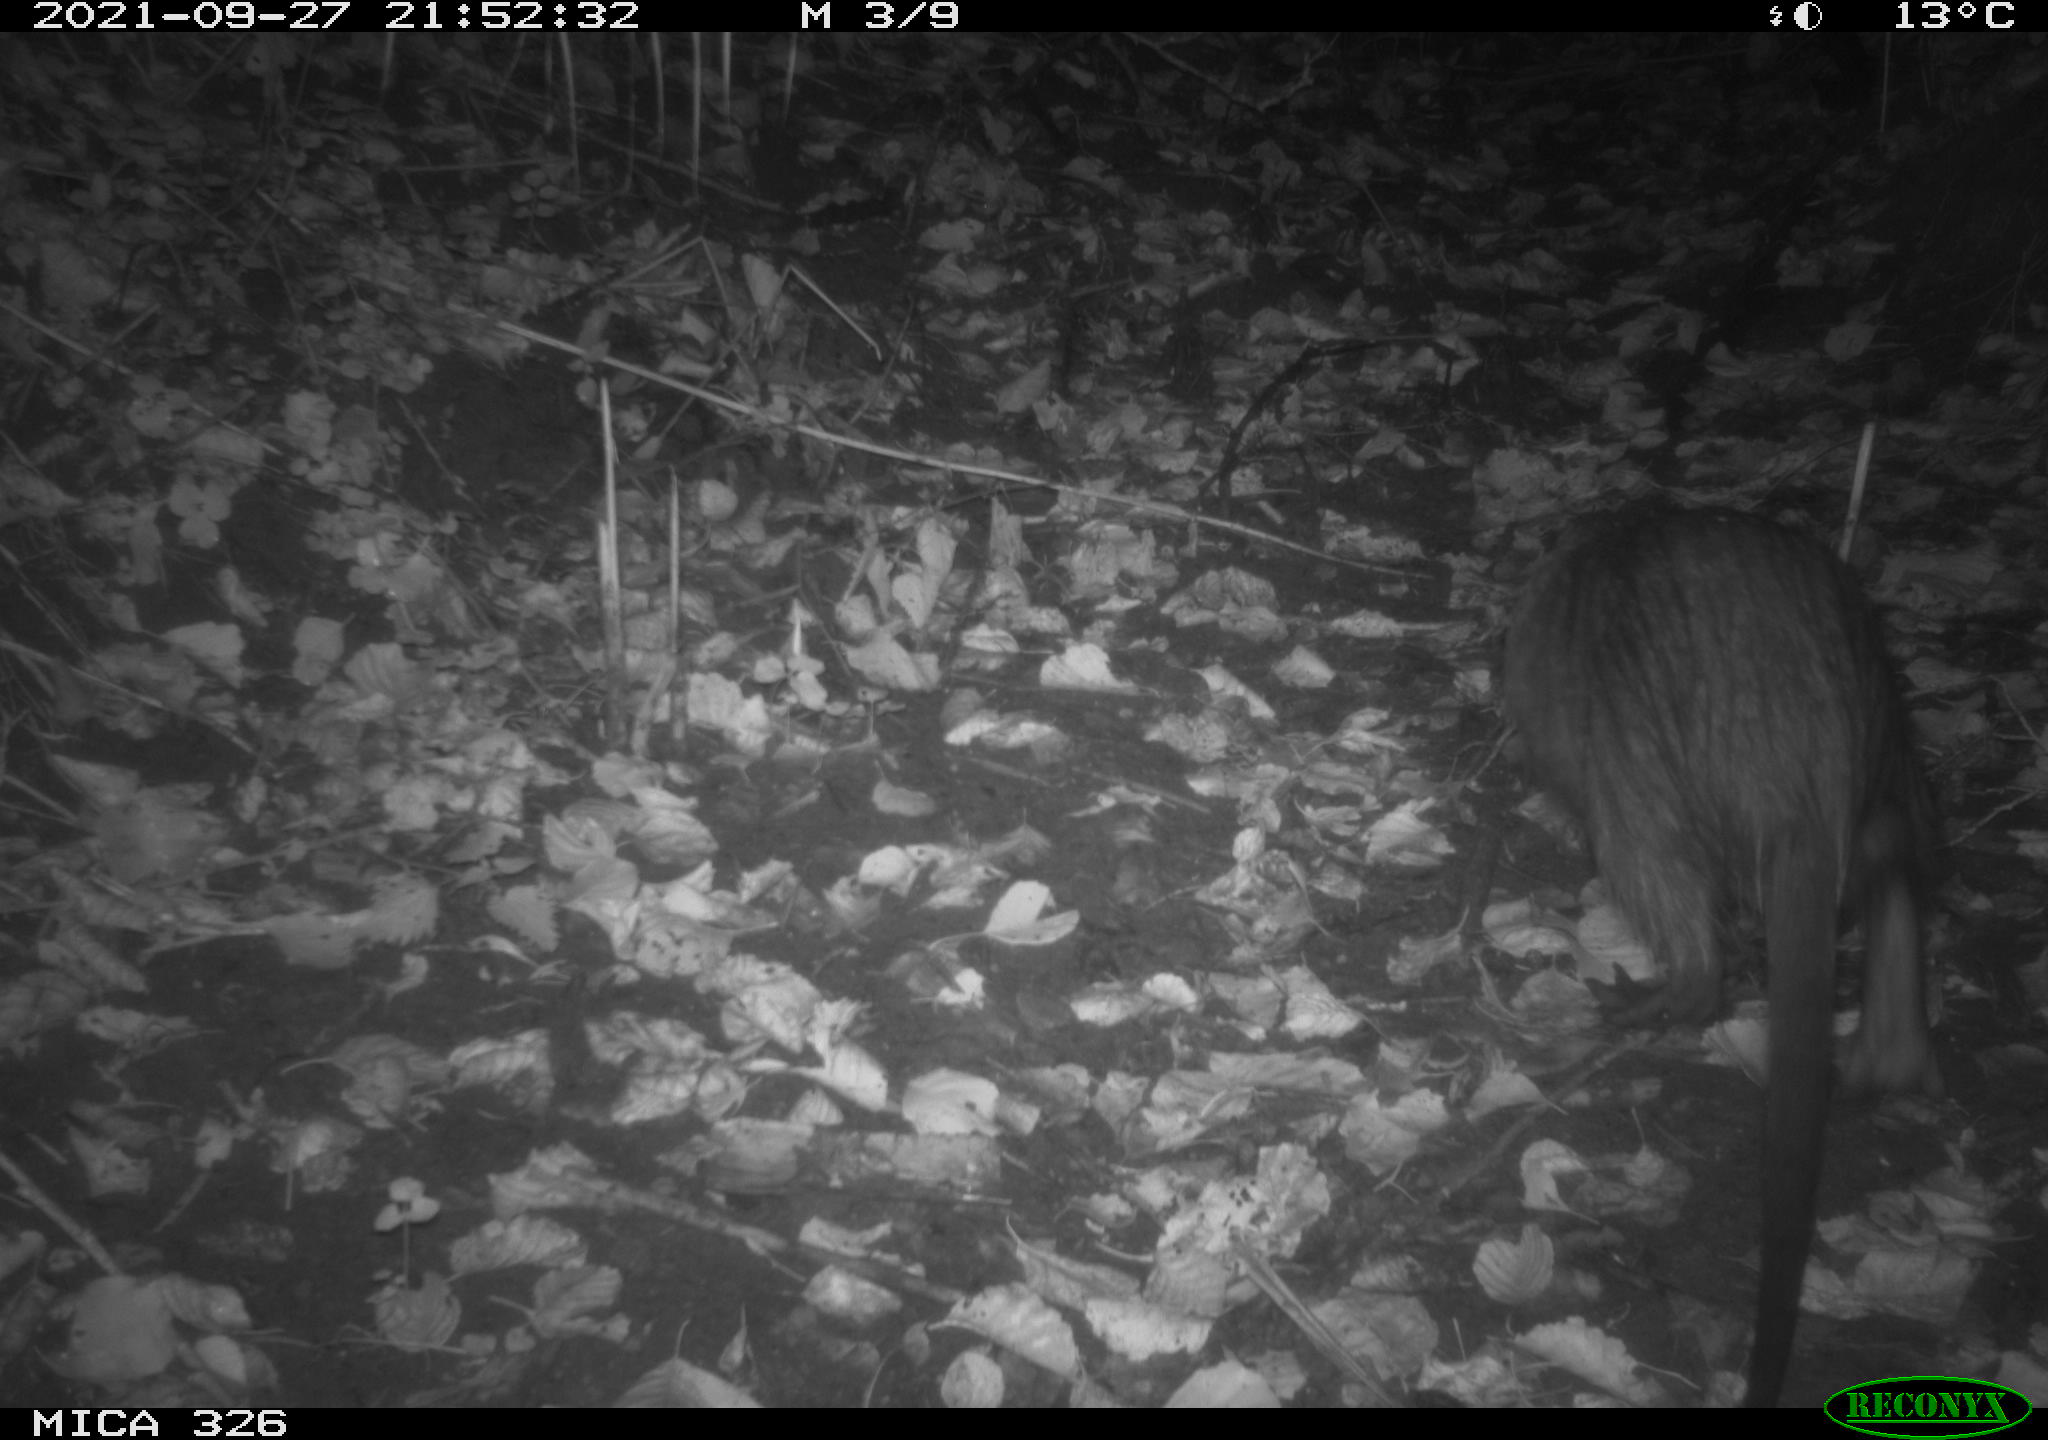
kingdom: Animalia
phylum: Chordata
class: Mammalia
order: Rodentia
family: Myocastoridae
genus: Myocastor
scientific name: Myocastor coypus
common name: Coypu
